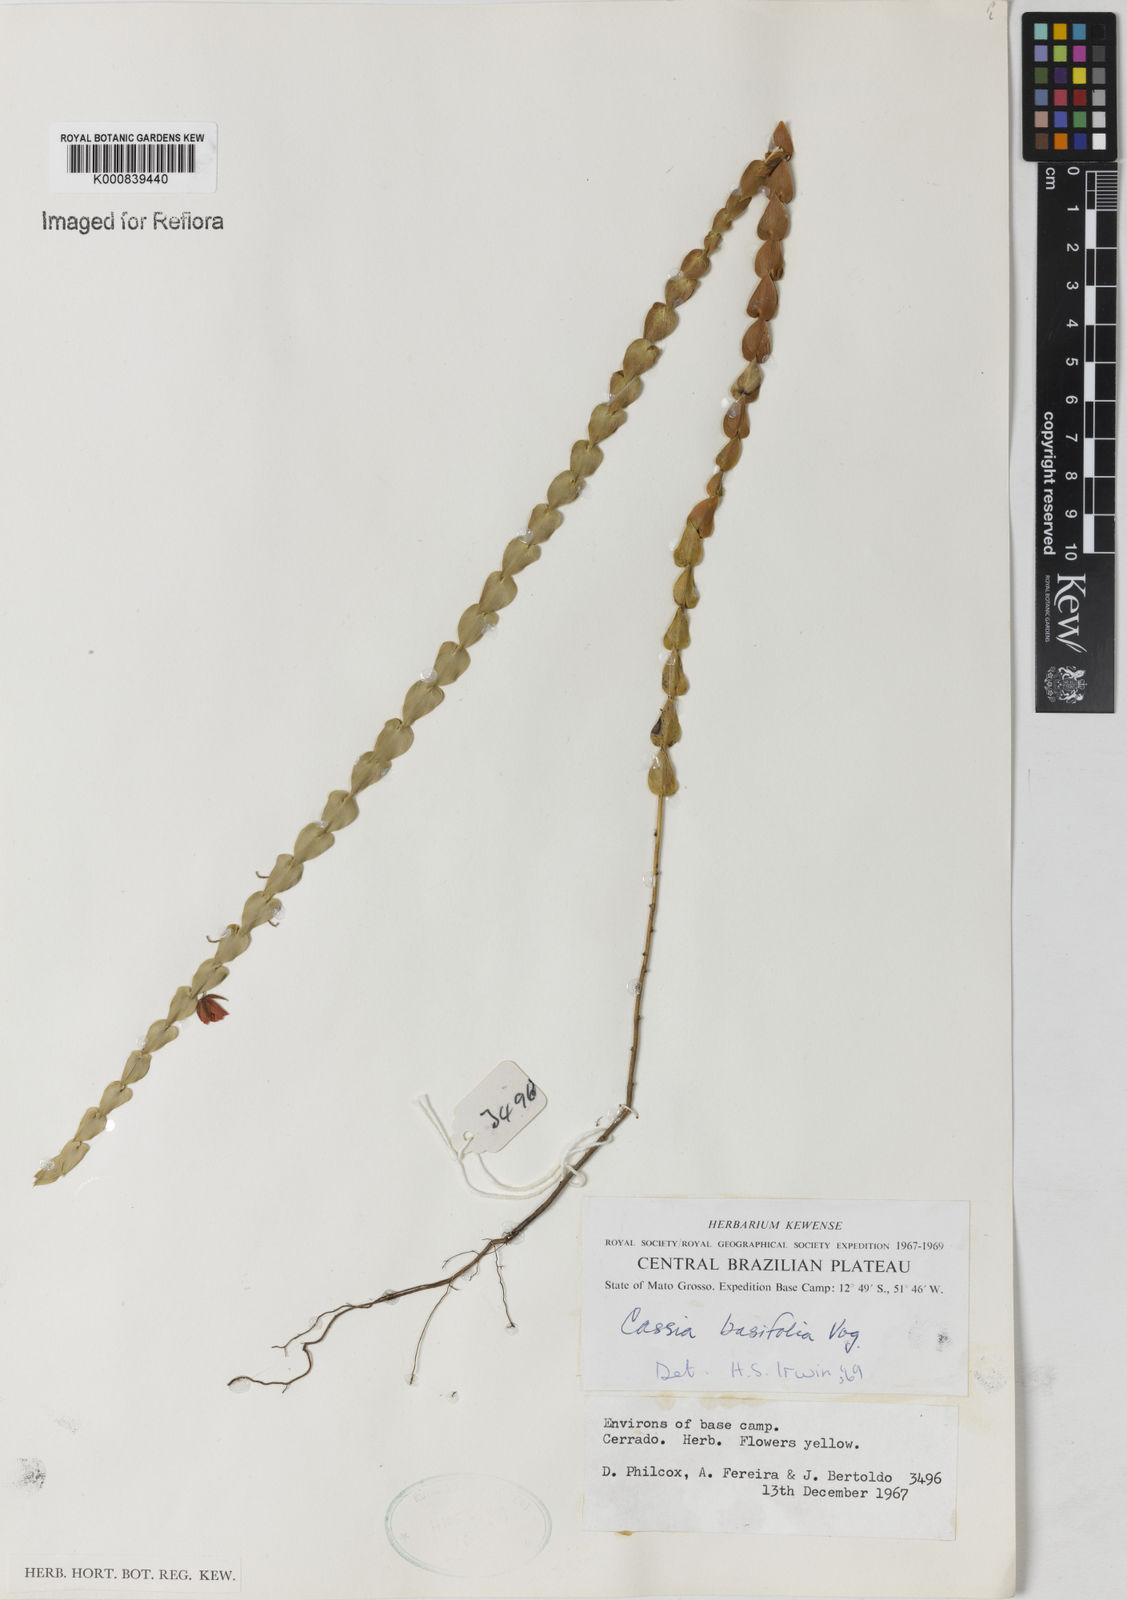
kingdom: Plantae
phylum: Tracheophyta
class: Magnoliopsida
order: Fabales
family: Fabaceae
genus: Chamaecrista
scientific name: Chamaecrista basifolia
